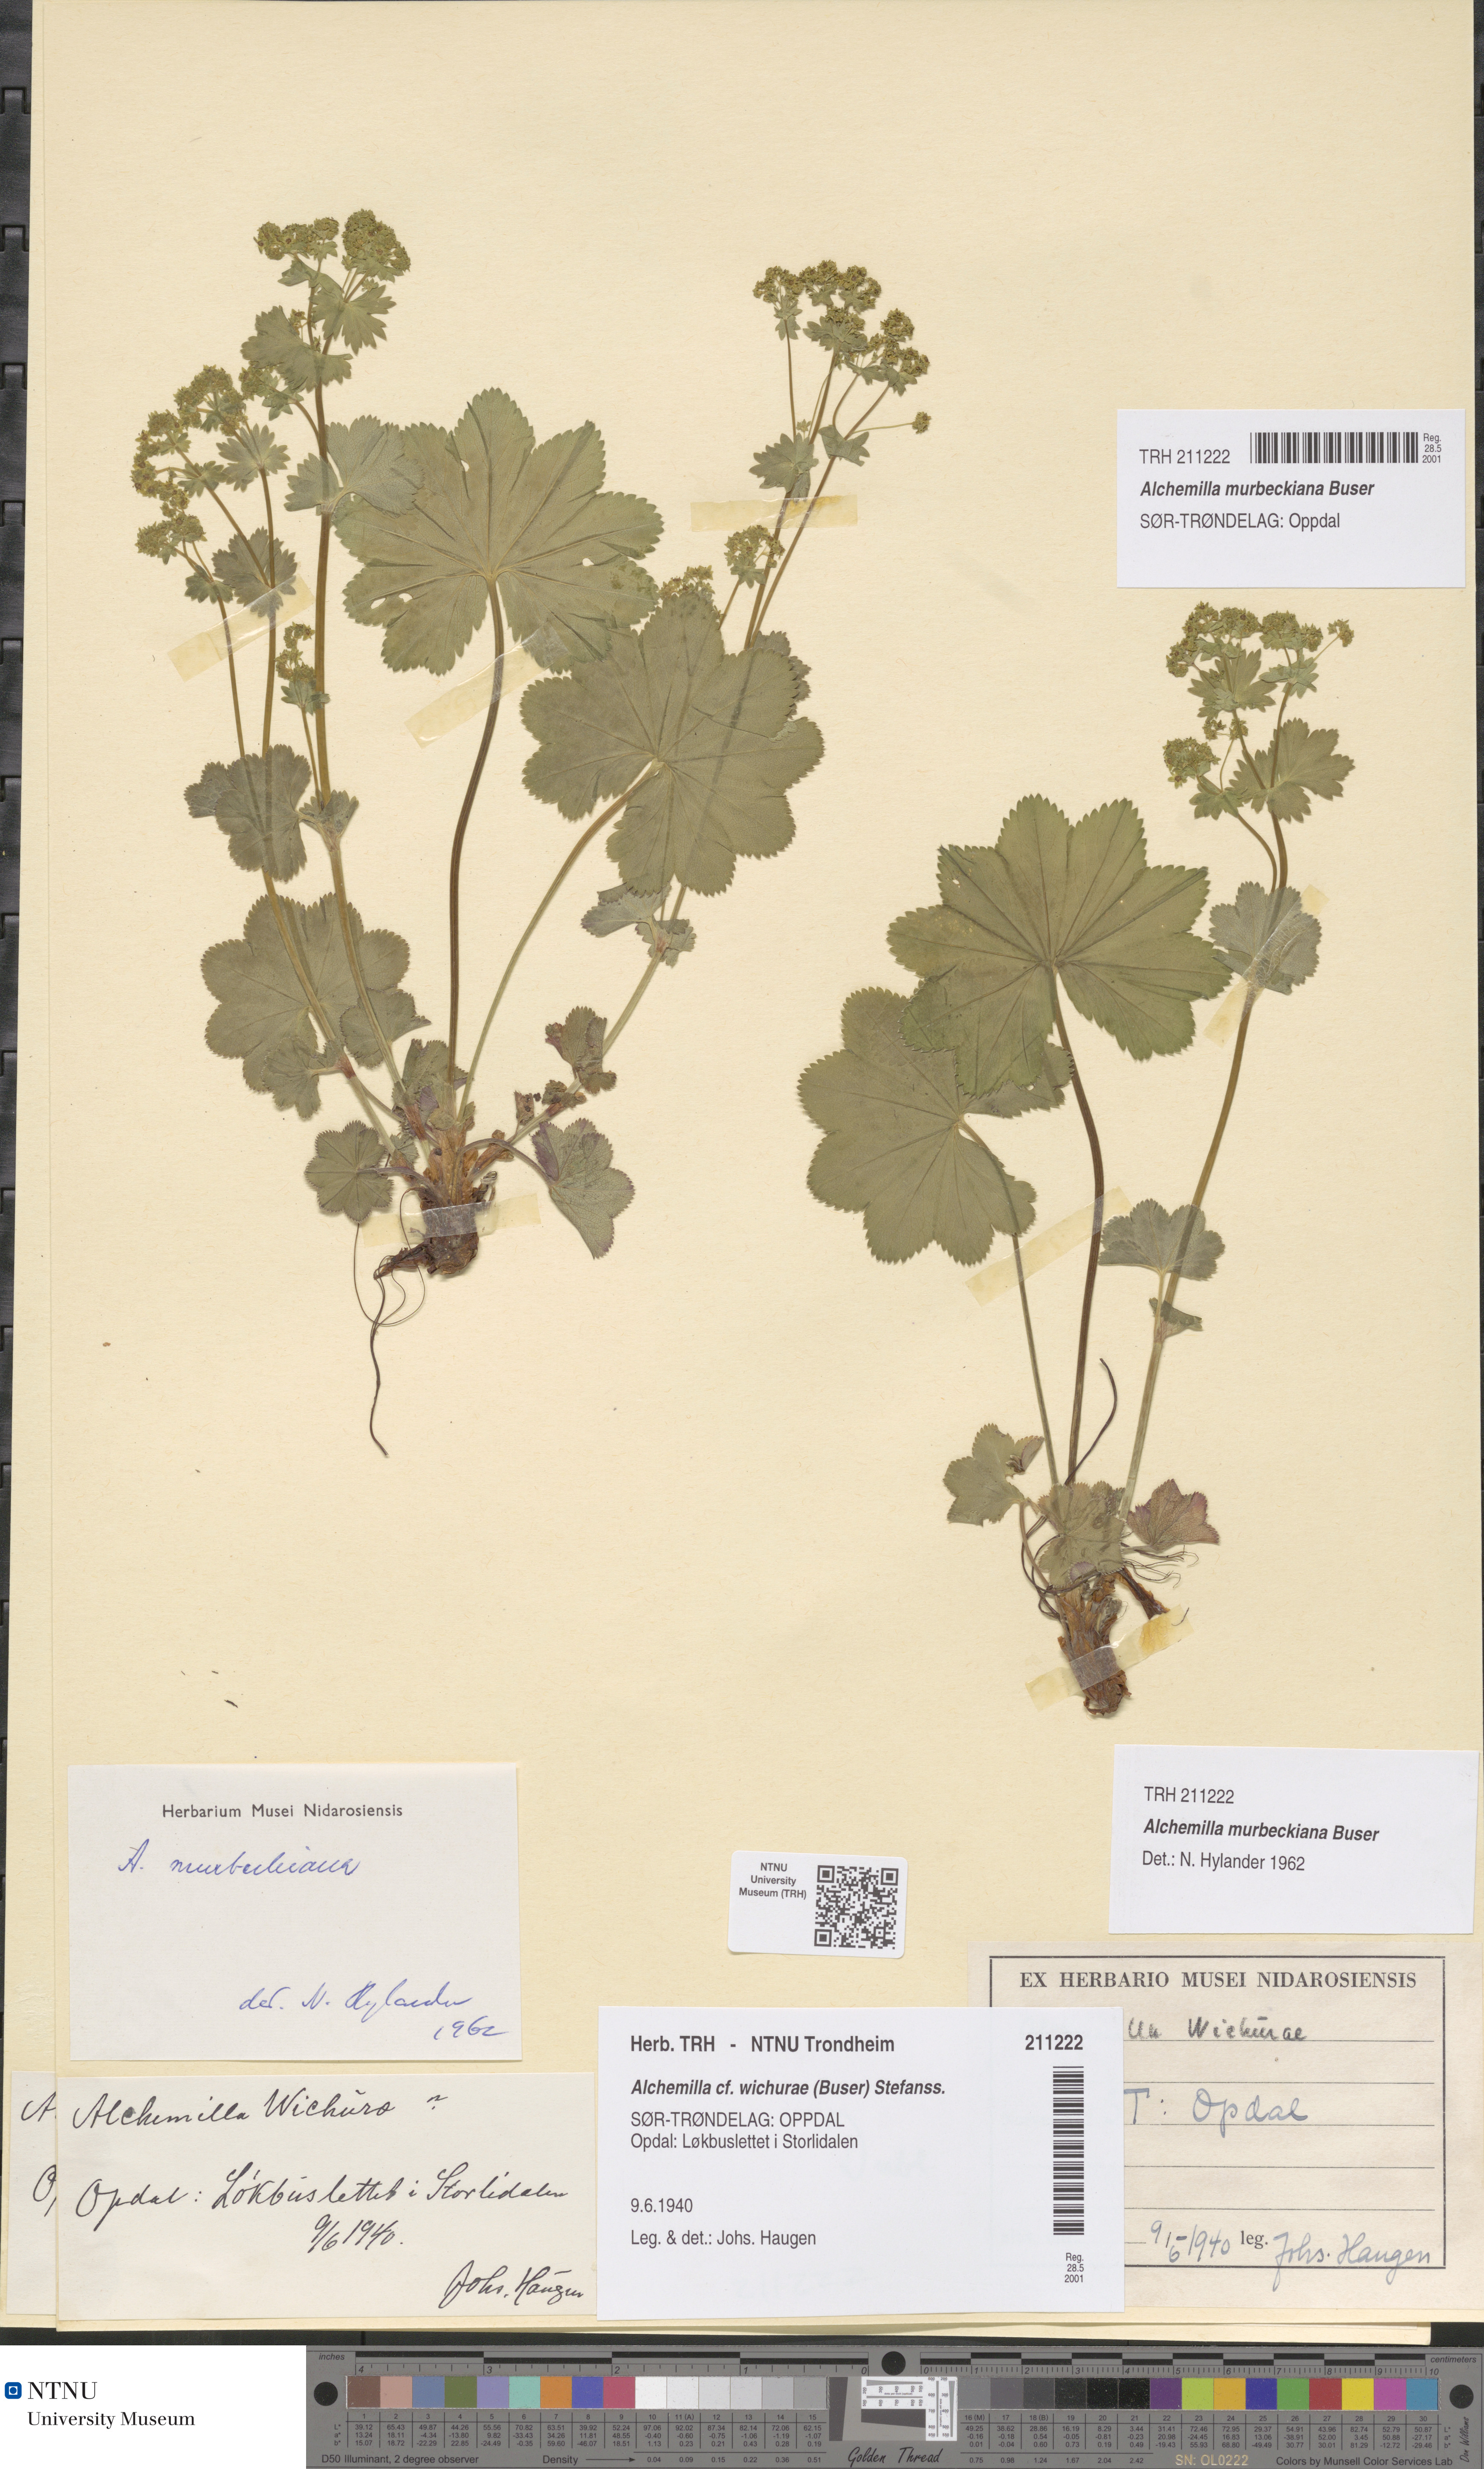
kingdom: Plantae
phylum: Tracheophyta
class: Magnoliopsida
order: Rosales
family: Rosaceae
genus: Alchemilla
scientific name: Alchemilla murbeckiana
